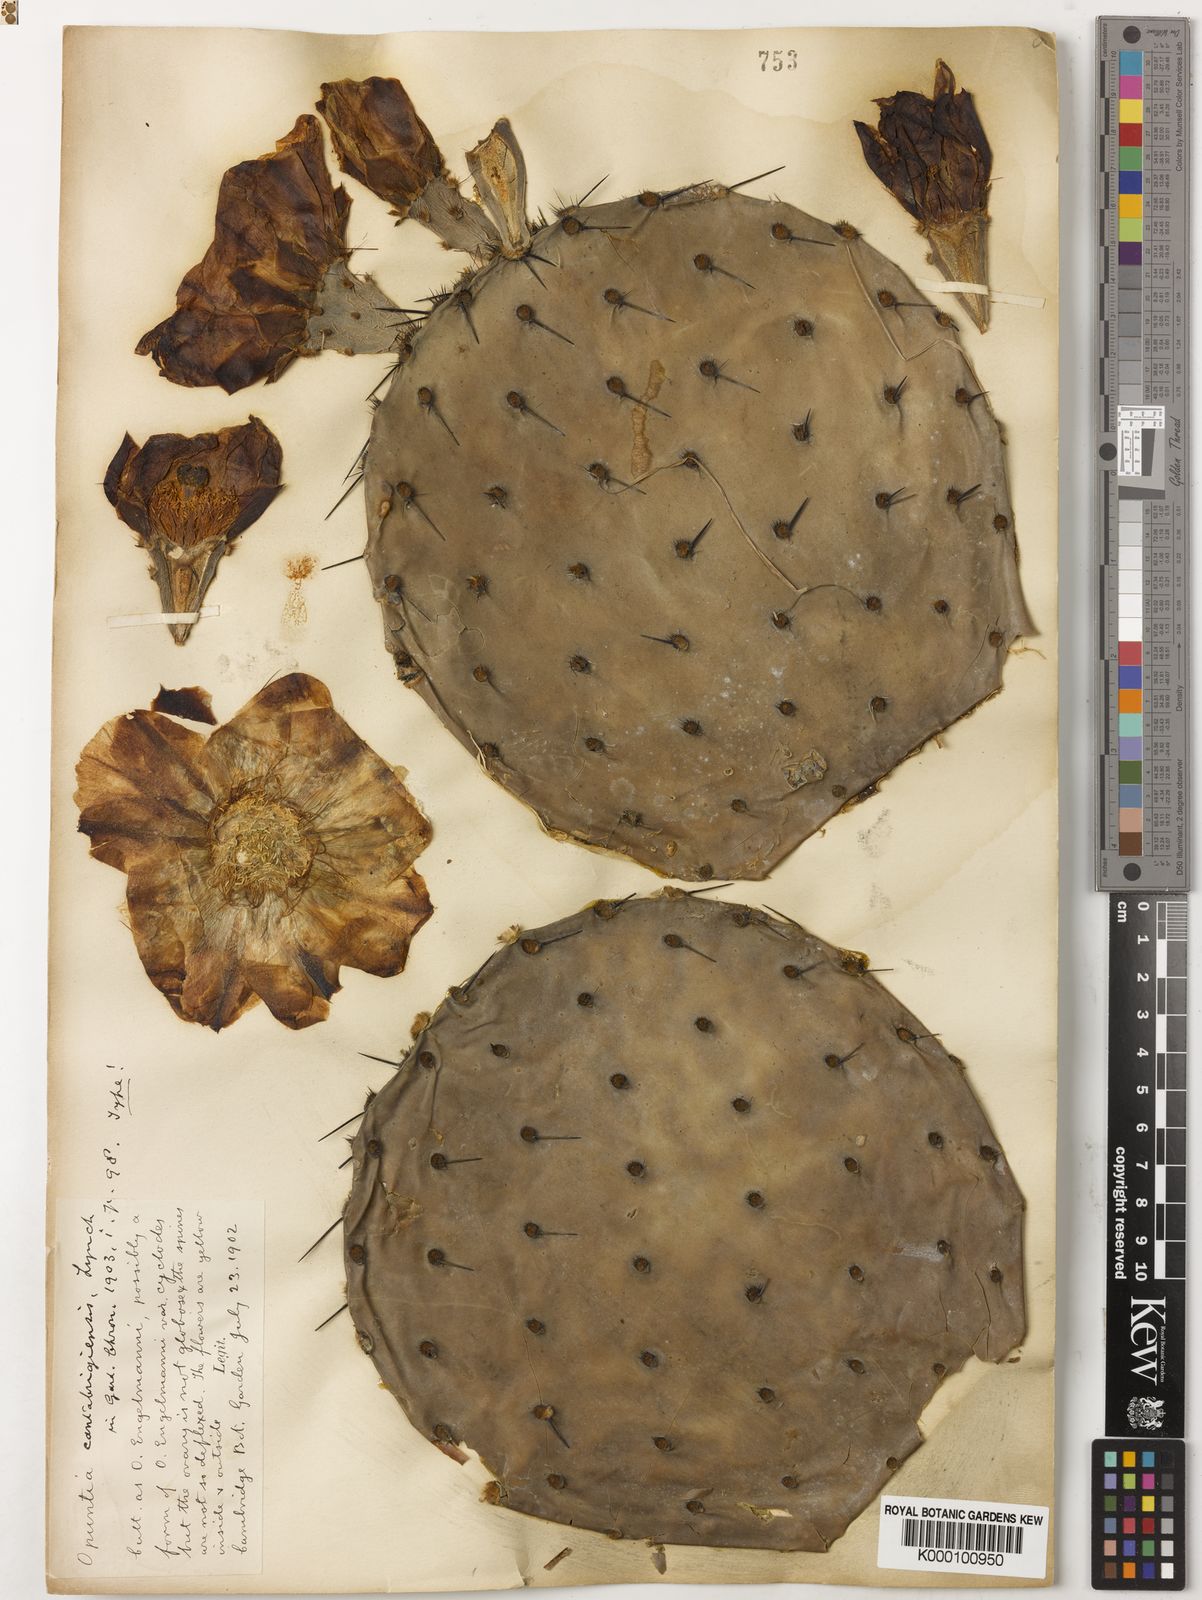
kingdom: Plantae
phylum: Tracheophyta
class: Magnoliopsida
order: Caryophyllales
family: Cactaceae
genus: Opuntia
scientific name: Opuntia engelmannii
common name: Cactus-apple
